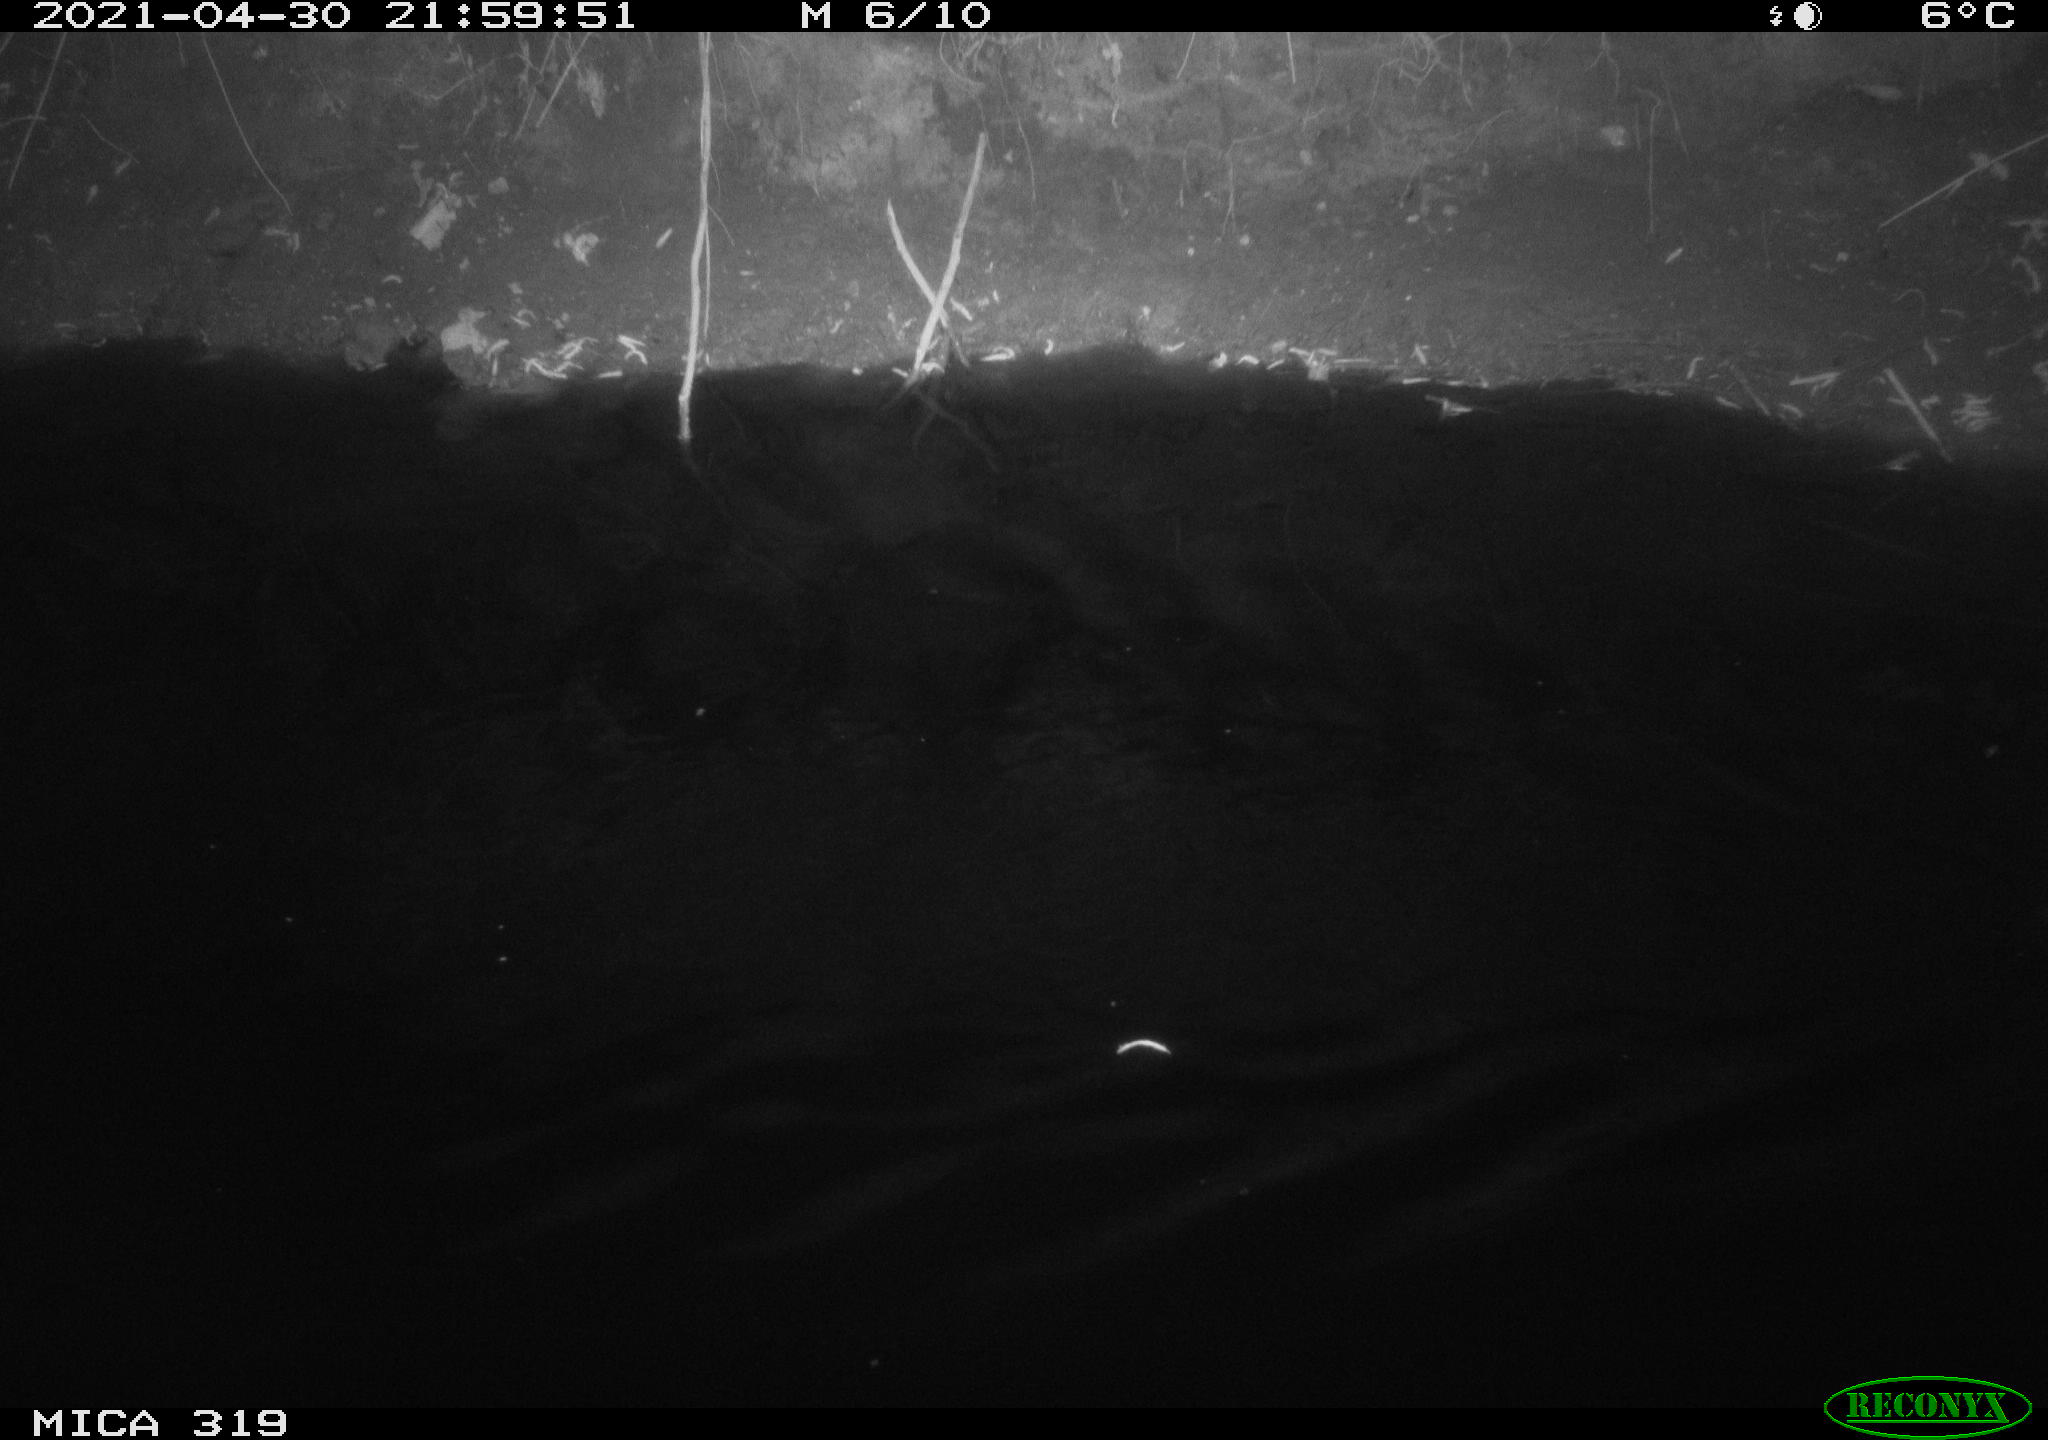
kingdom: Animalia
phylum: Chordata
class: Aves
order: Anseriformes
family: Anatidae
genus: Anas
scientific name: Anas platyrhynchos
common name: Mallard
